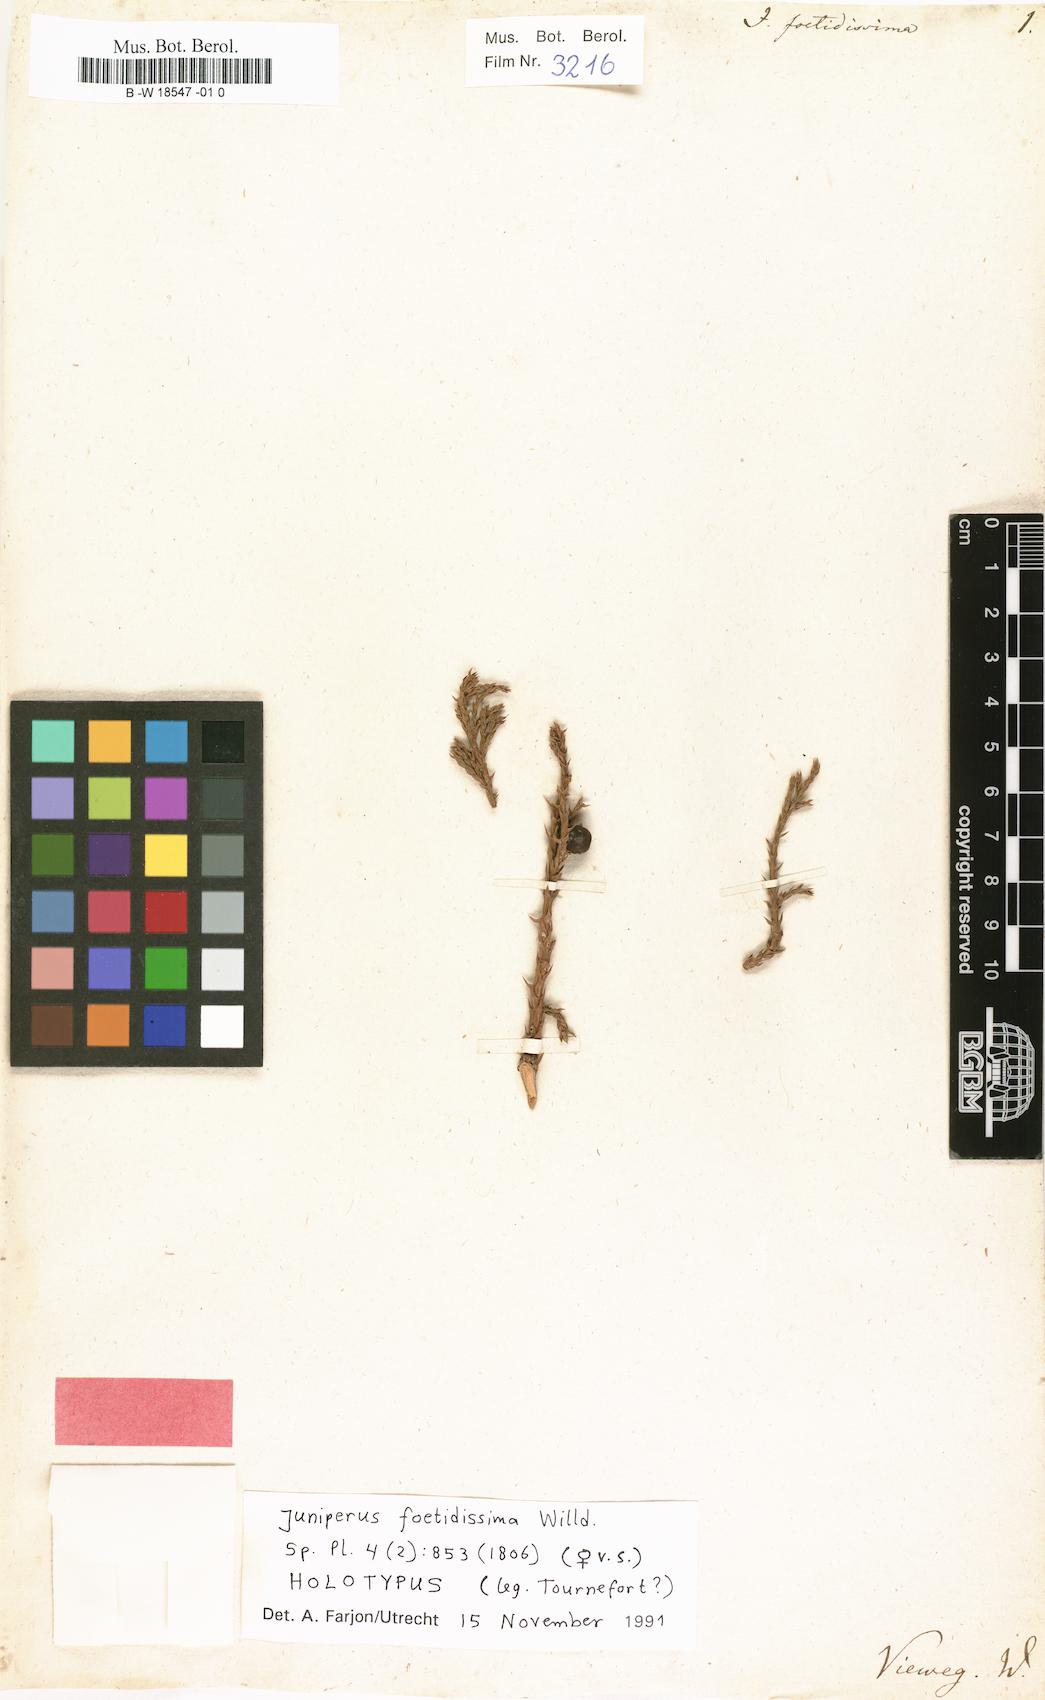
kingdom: Plantae
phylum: Tracheophyta
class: Pinopsida
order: Pinales
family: Cupressaceae
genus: Juniperus
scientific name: Juniperus foetidissima
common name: Stinking juniper
